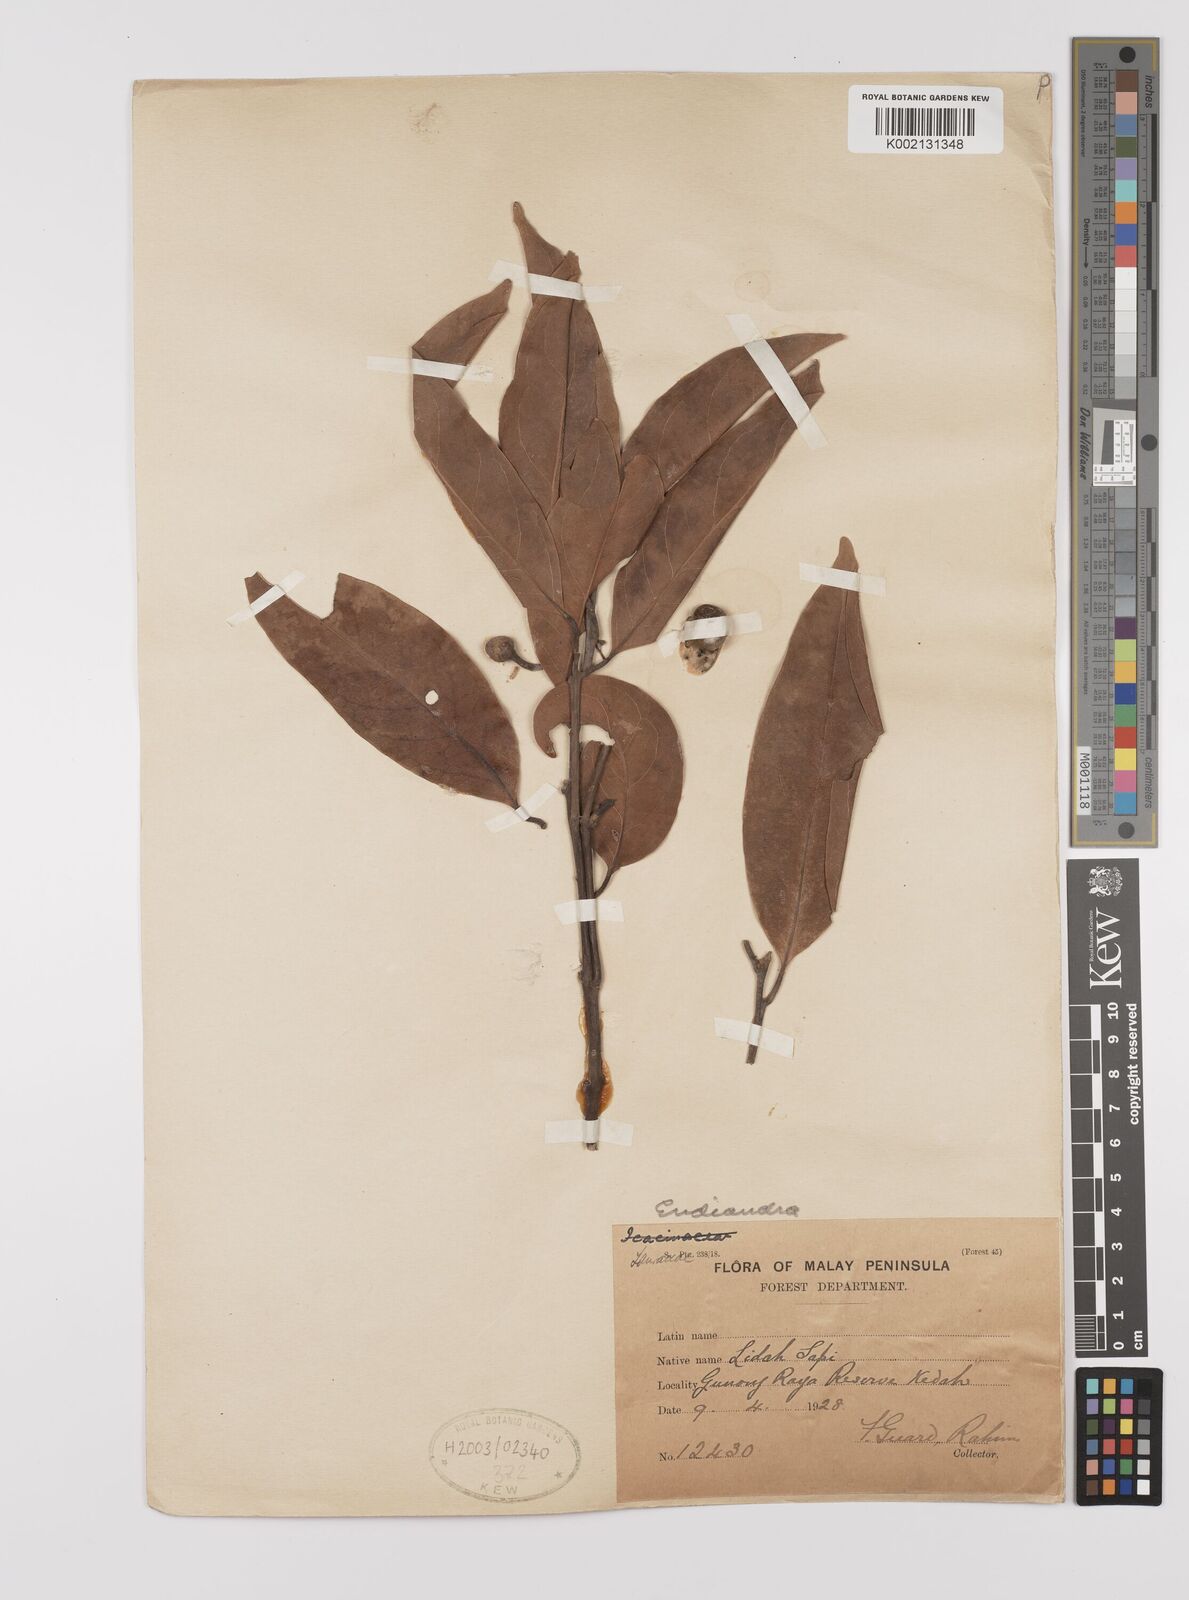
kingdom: Plantae
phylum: Tracheophyta
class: Magnoliopsida
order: Laurales
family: Lauraceae
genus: Endiandra
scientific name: Endiandra
